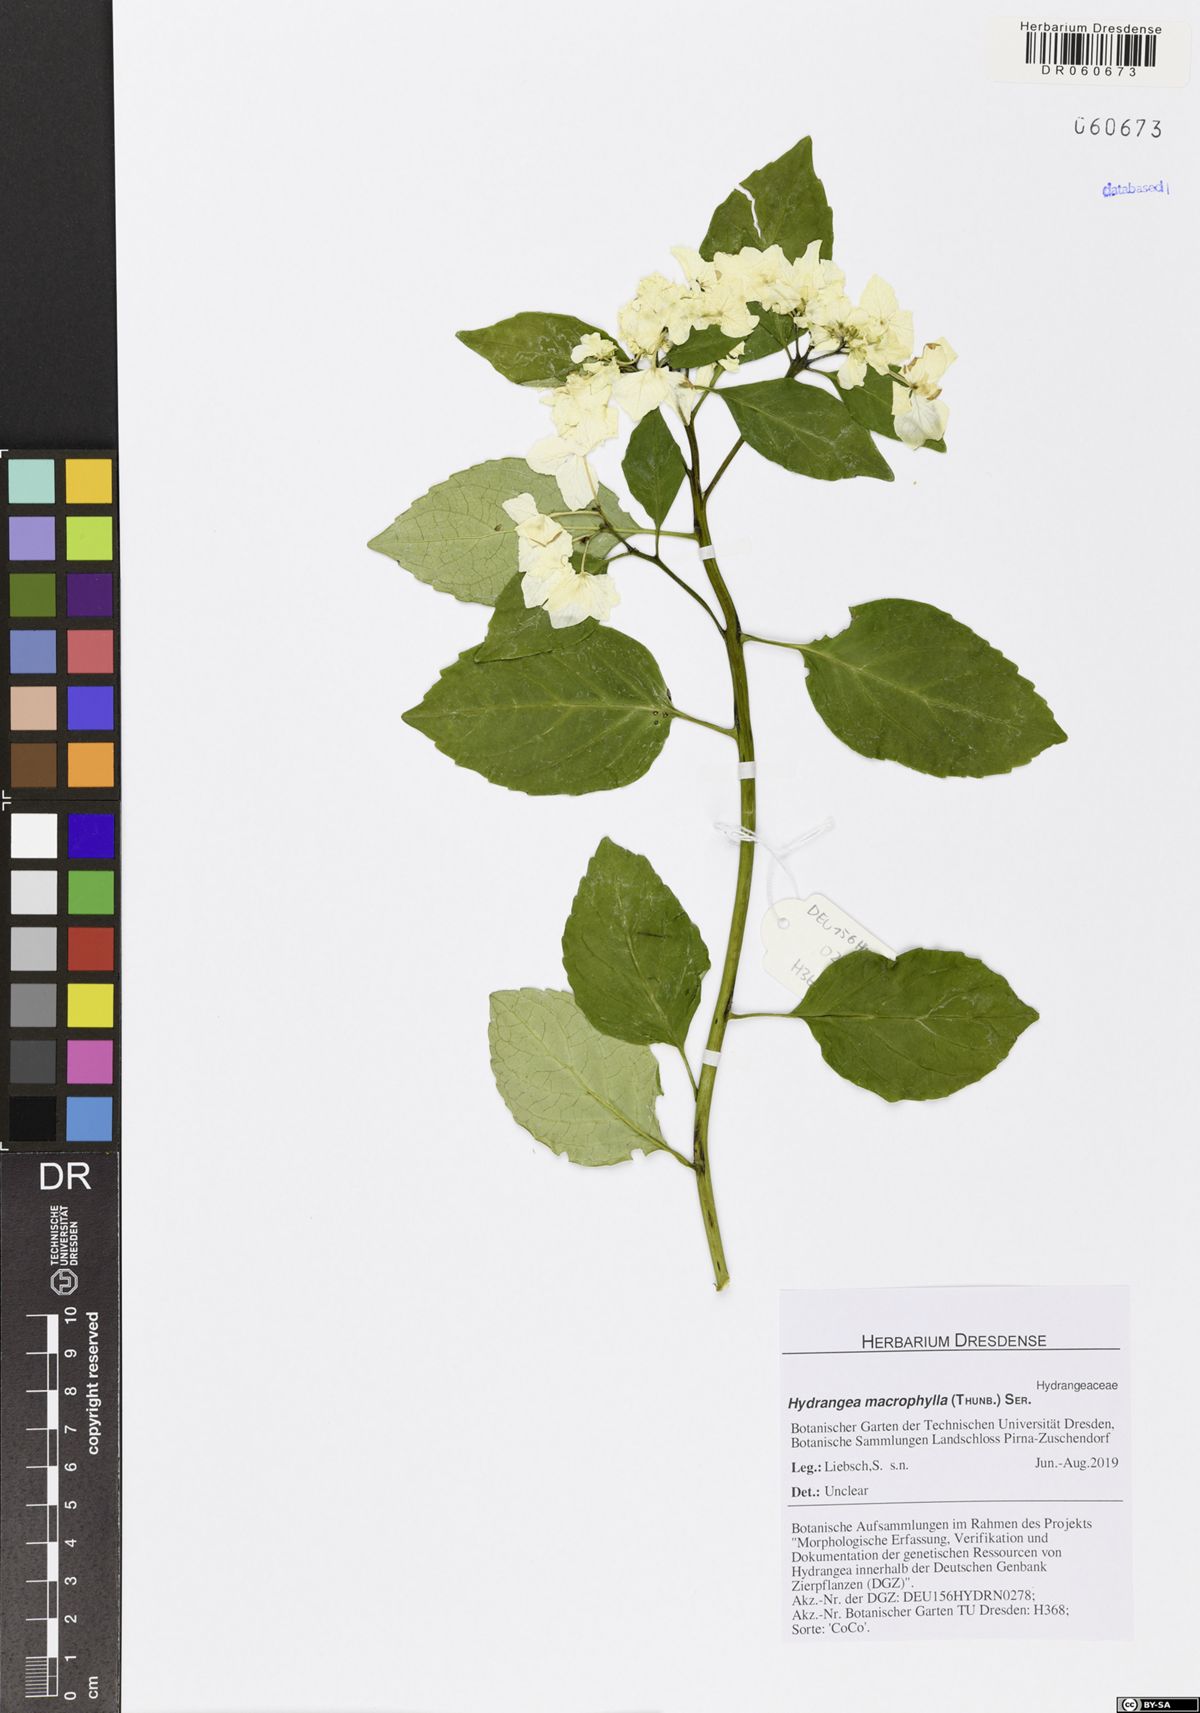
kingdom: Plantae
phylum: Tracheophyta
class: Magnoliopsida
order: Cornales
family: Hydrangeaceae
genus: Hydrangea
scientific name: Hydrangea macrophylla
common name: Hydrangea
